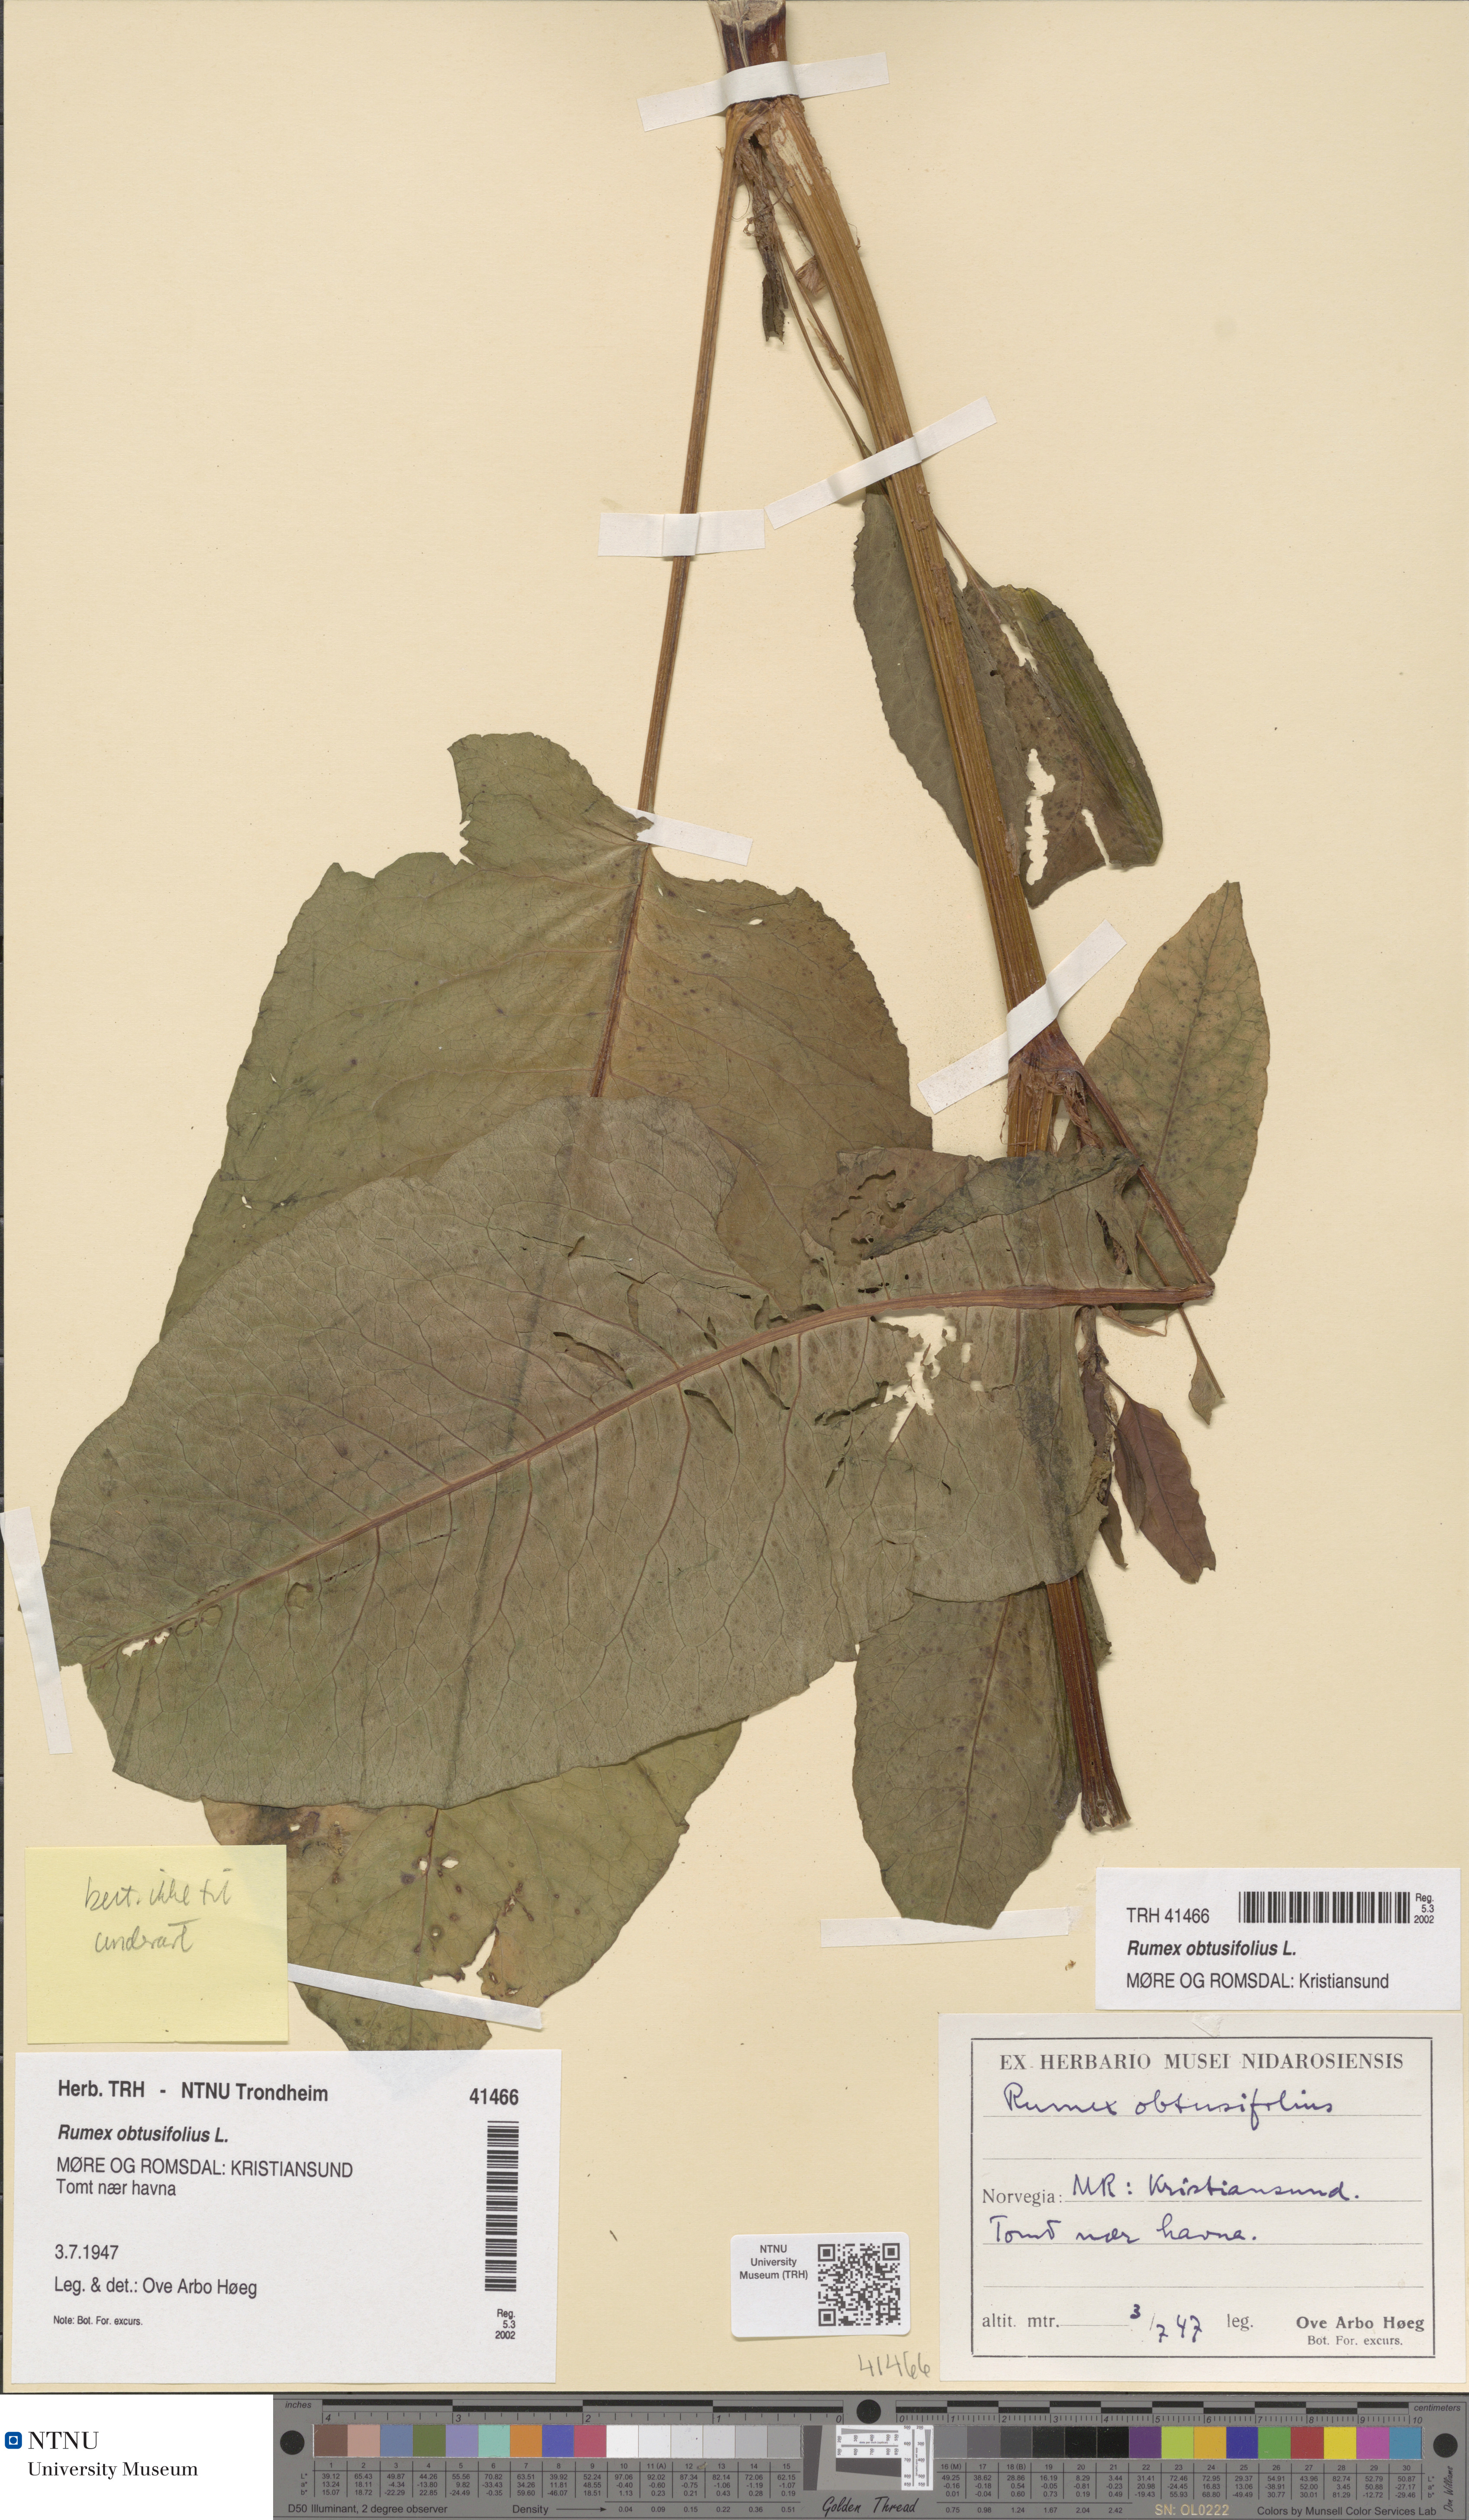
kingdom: Plantae
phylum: Tracheophyta
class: Magnoliopsida
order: Caryophyllales
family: Polygonaceae
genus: Rumex
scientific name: Rumex obtusifolius
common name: Bitter dock
